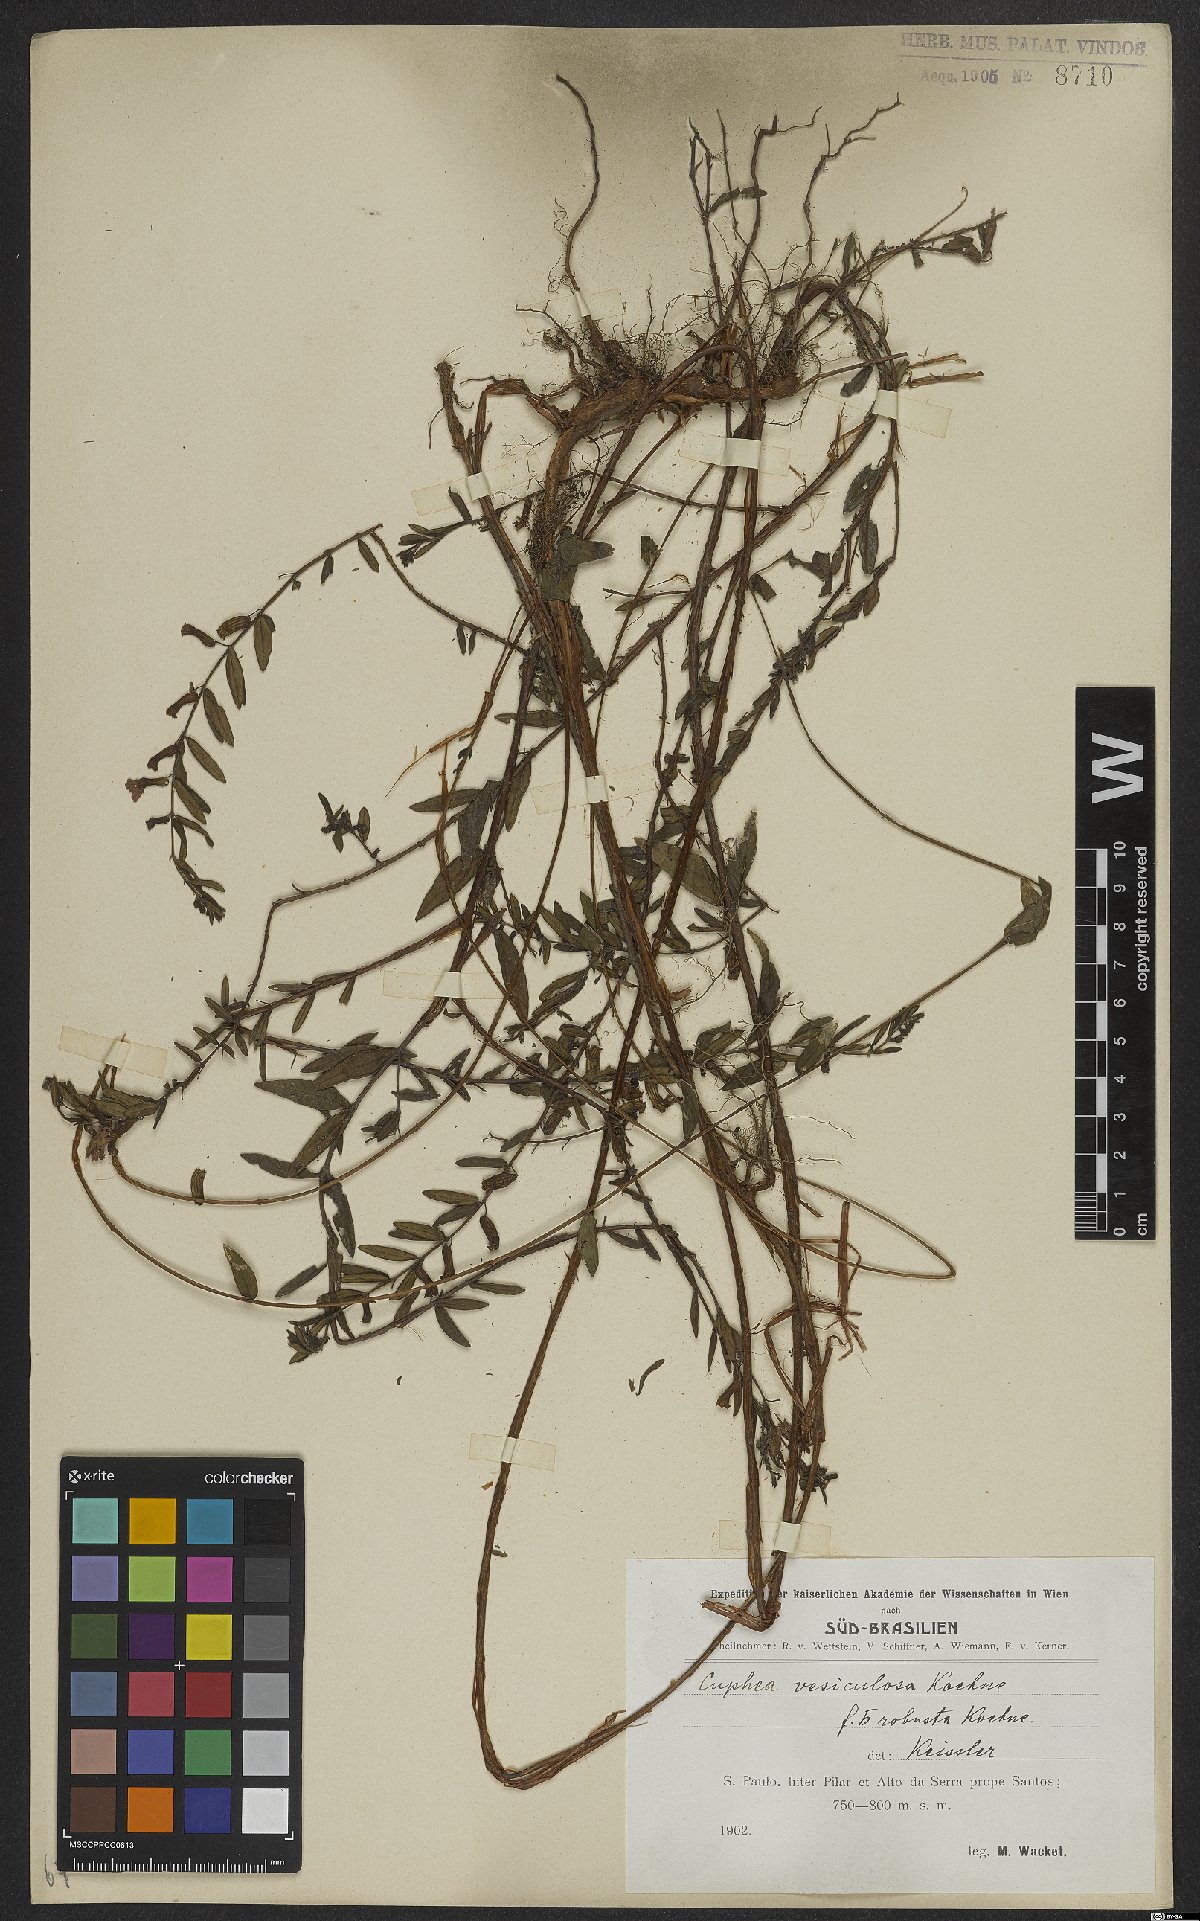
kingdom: Plantae
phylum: Tracheophyta
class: Magnoliopsida
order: Myrtales
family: Lythraceae
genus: Cuphea
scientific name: Cuphea vesiculosa
